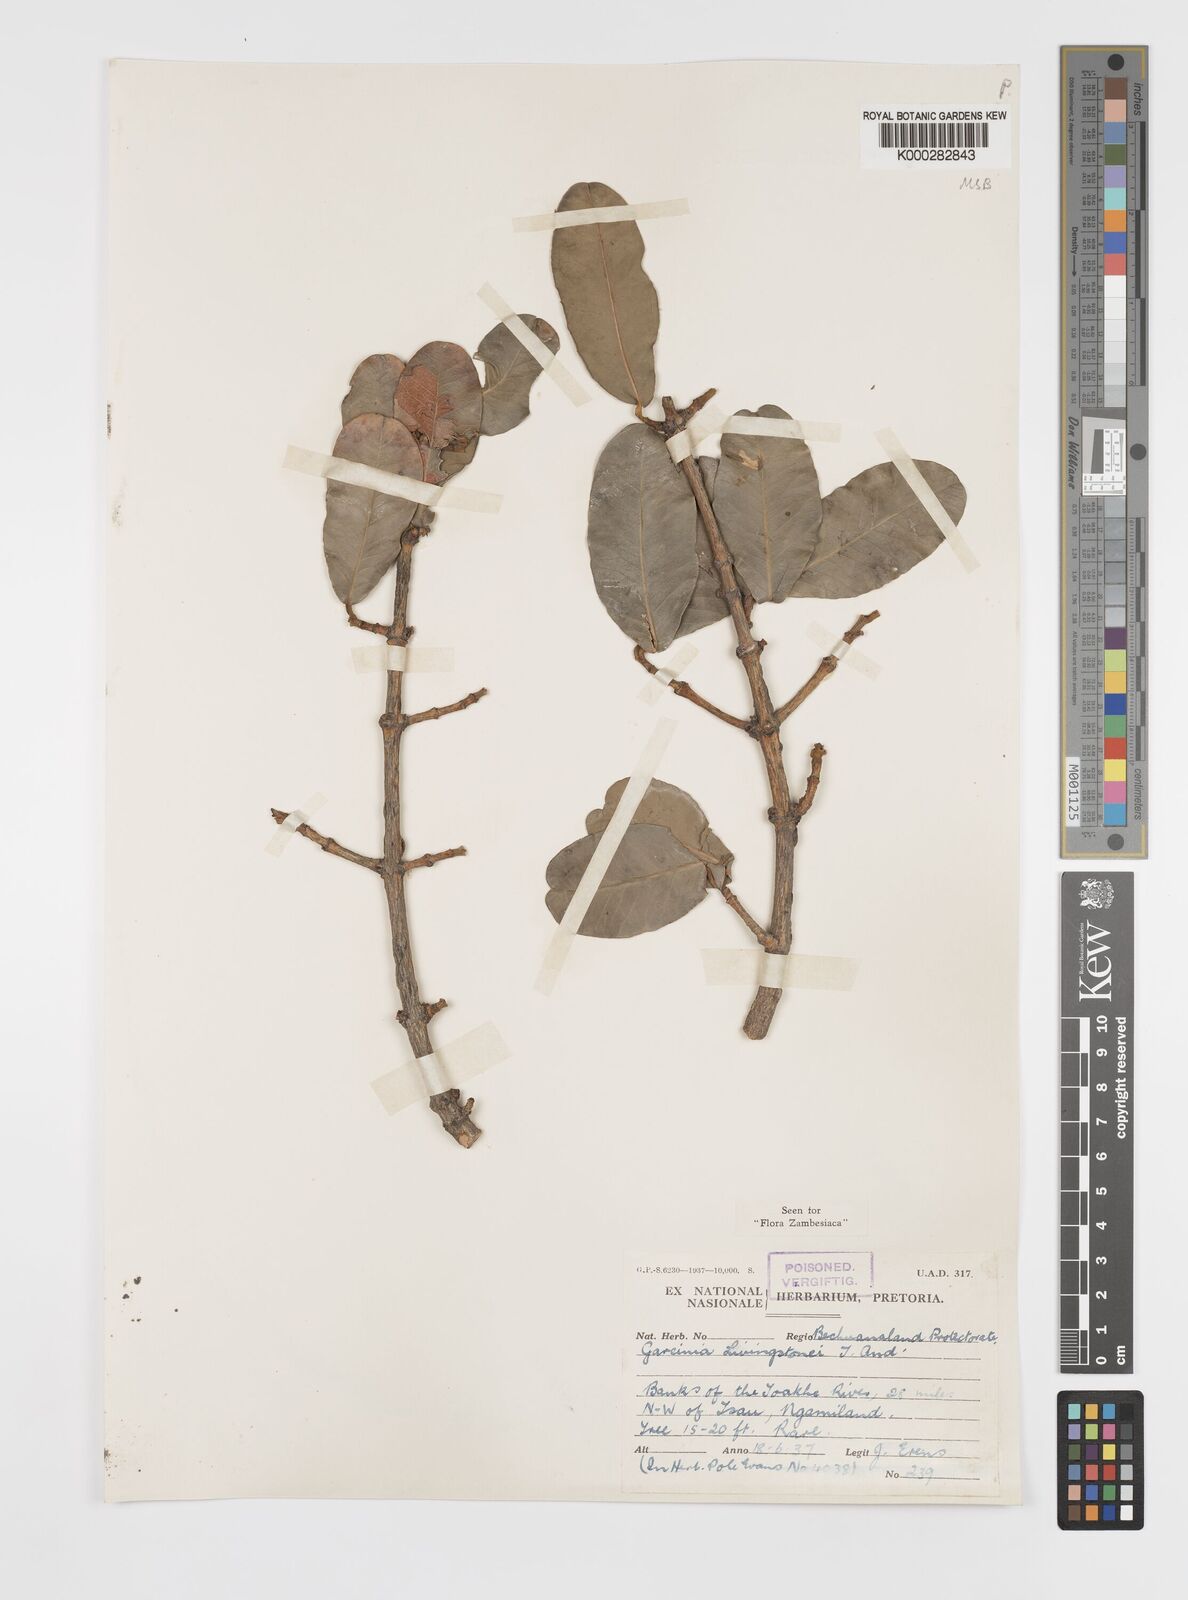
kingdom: Plantae
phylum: Tracheophyta
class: Magnoliopsida
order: Malpighiales
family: Clusiaceae
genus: Garcinia
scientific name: Garcinia livingstonei
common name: African mangosteen
